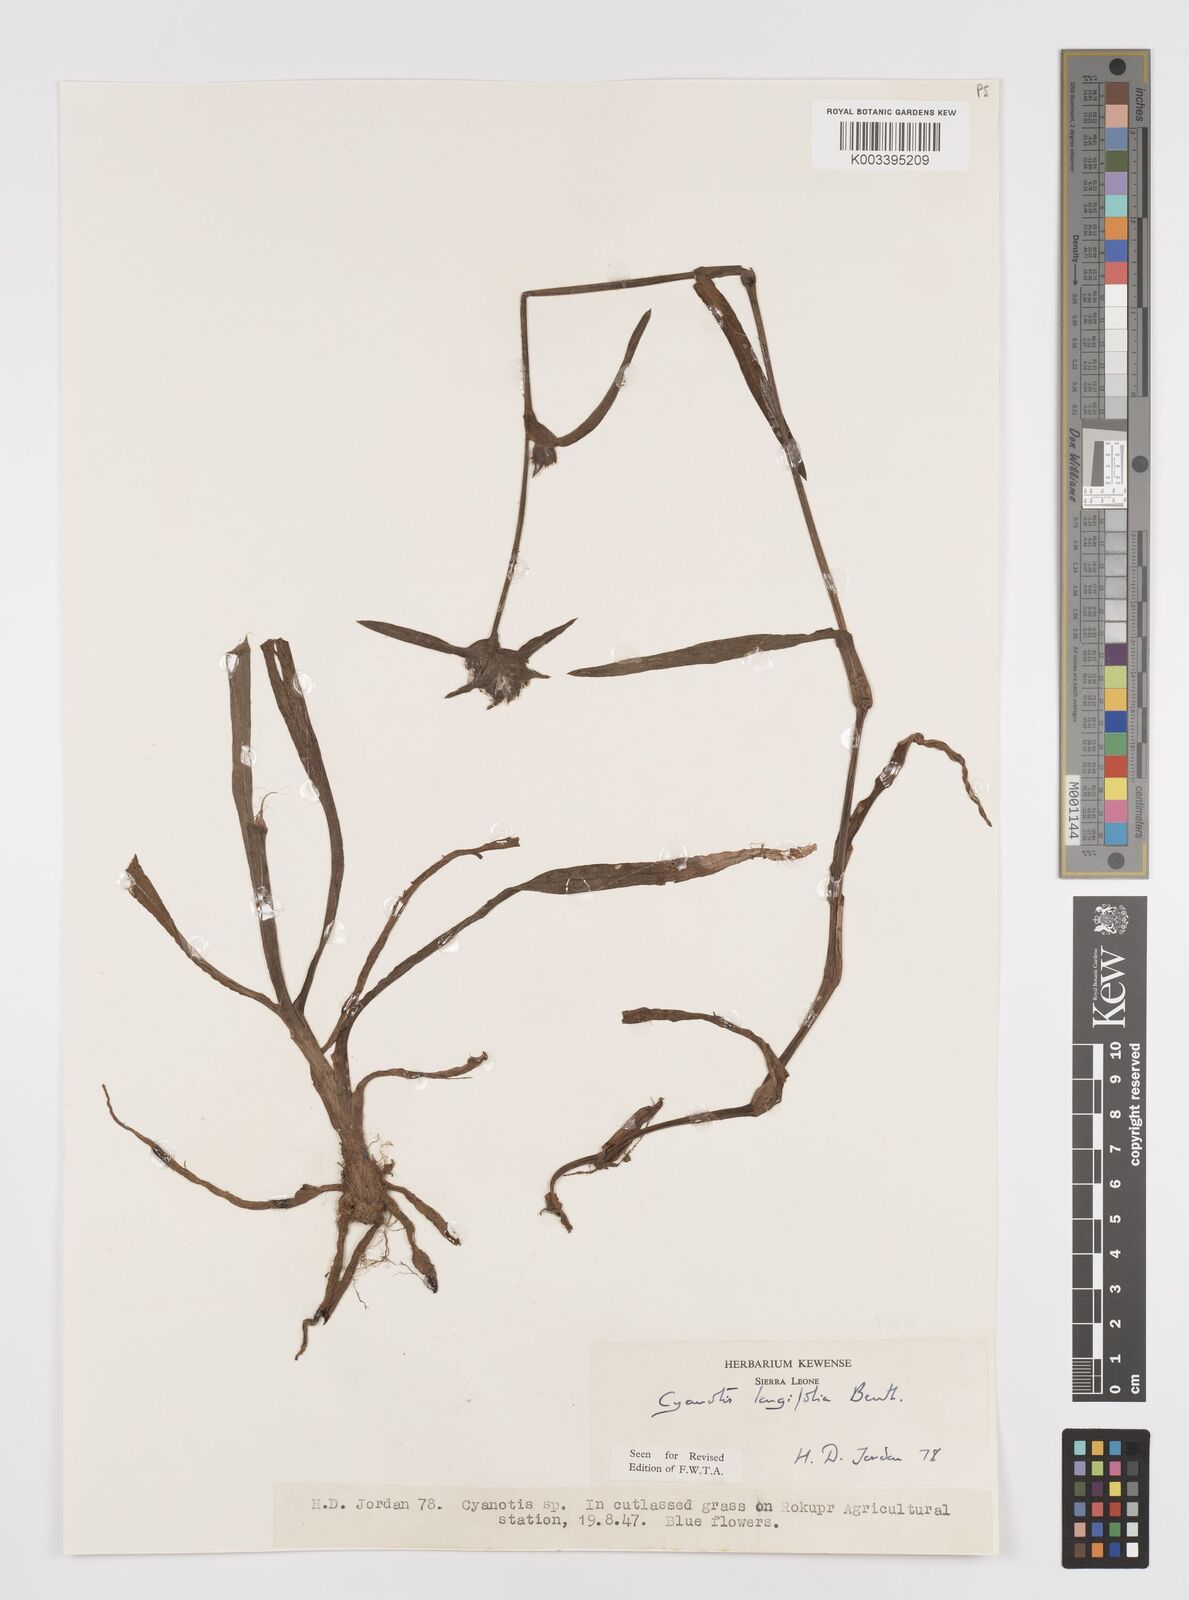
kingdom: Plantae
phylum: Tracheophyta
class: Liliopsida
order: Commelinales
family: Commelinaceae
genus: Cyanotis
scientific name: Cyanotis
